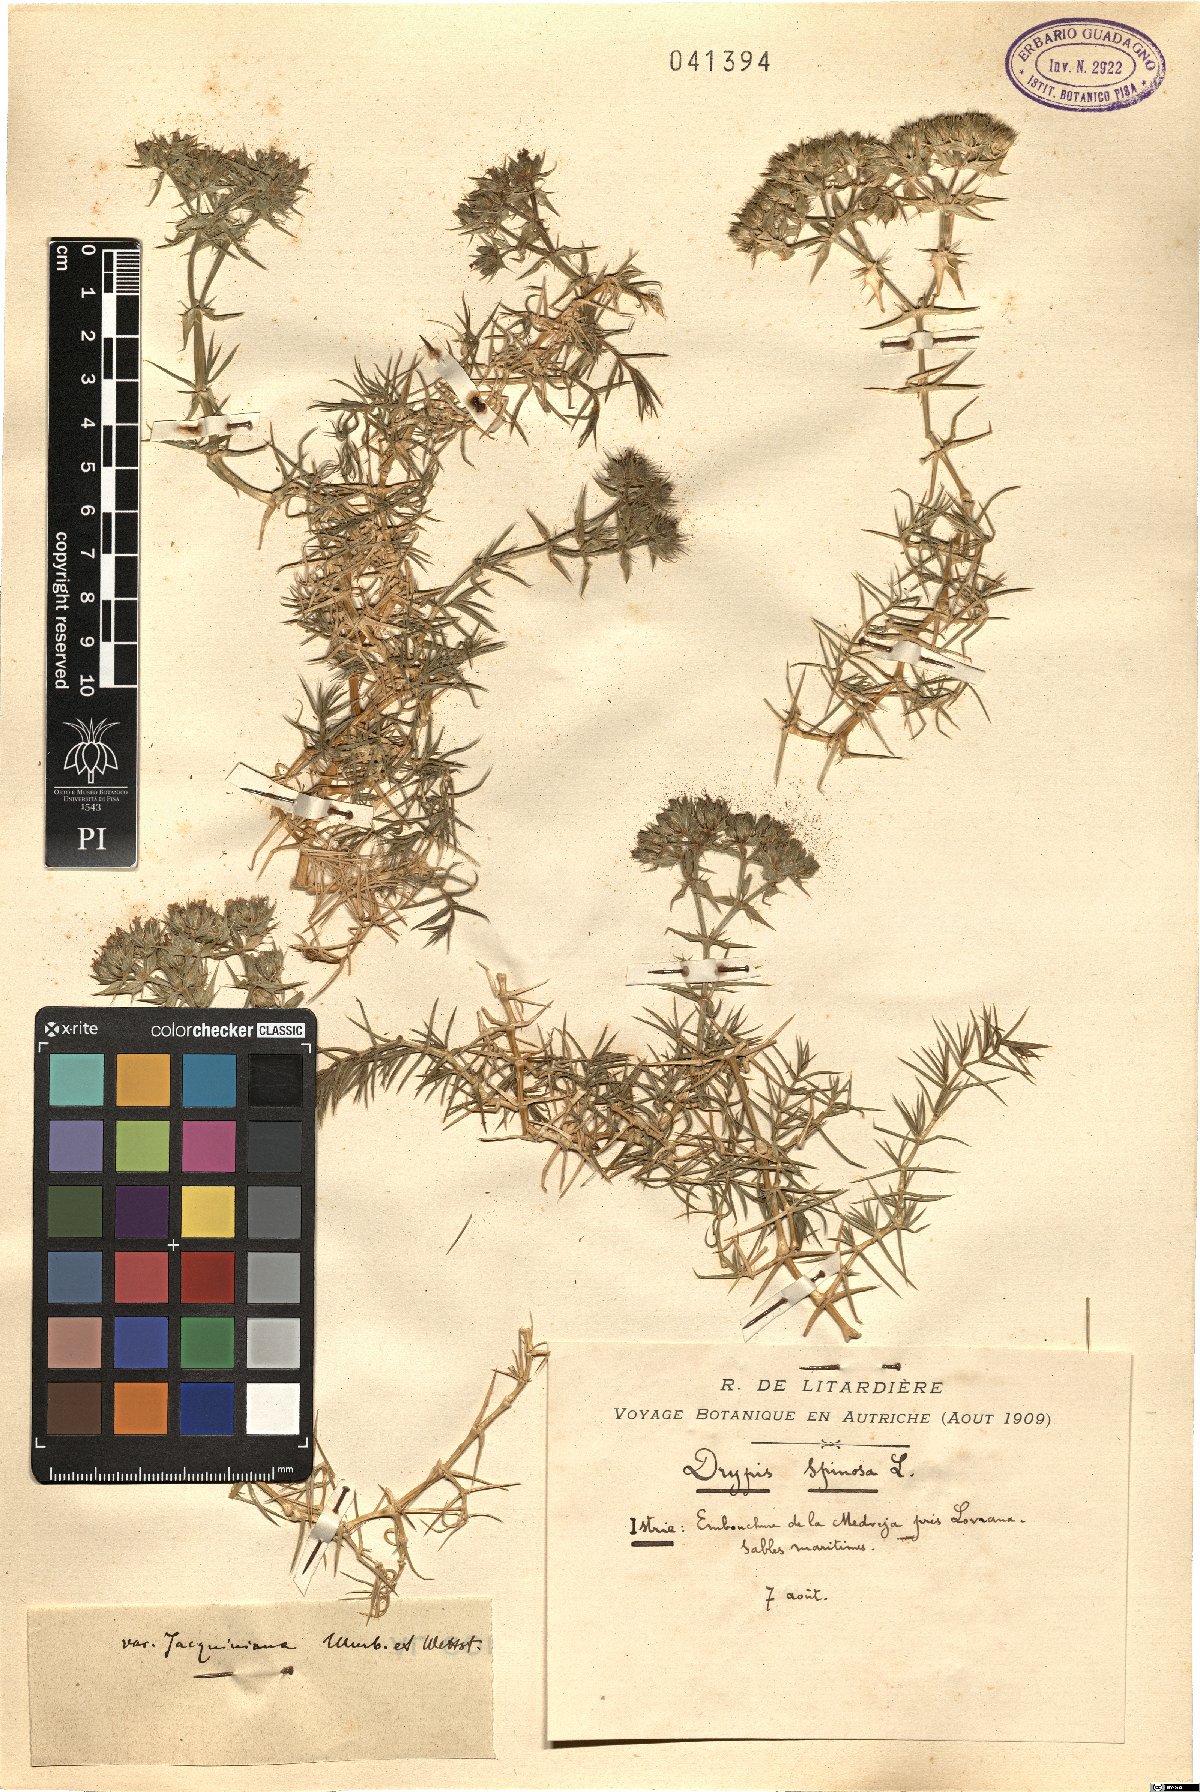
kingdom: Plantae
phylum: Tracheophyta
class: Magnoliopsida
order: Caryophyllales
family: Caryophyllaceae
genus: Drypis
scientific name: Drypis spinosa
